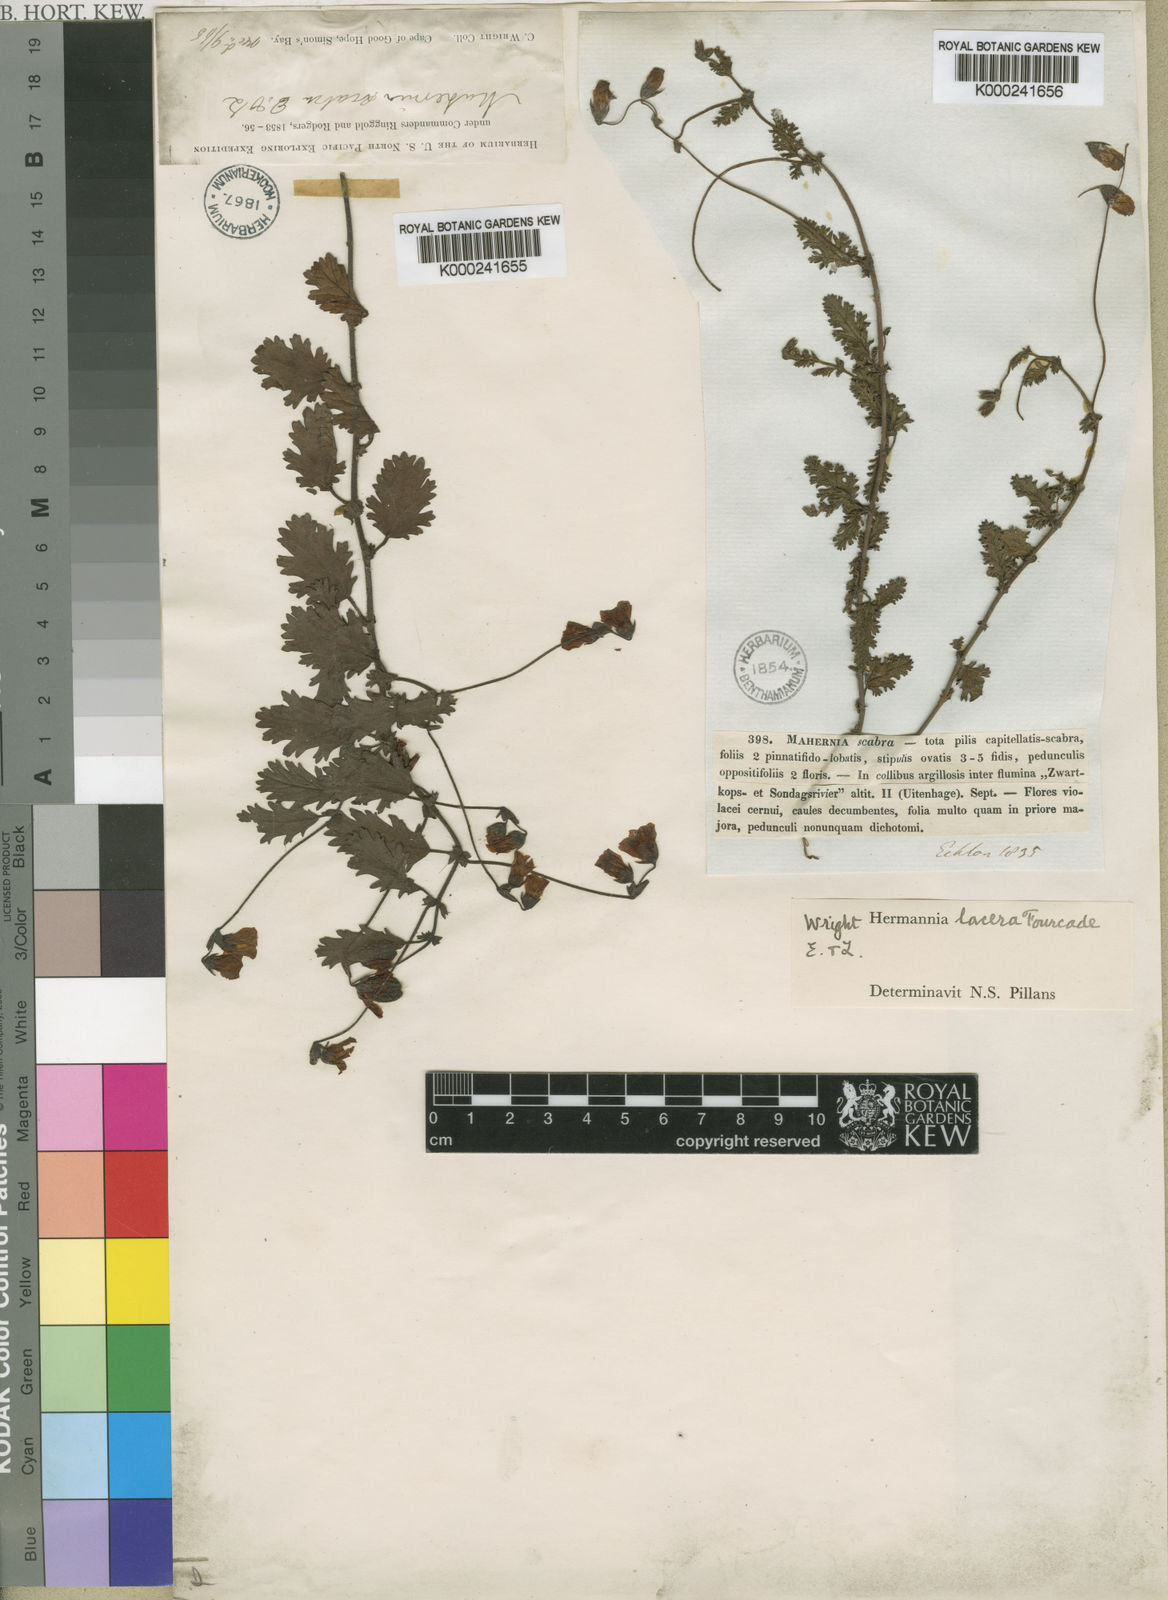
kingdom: Plantae
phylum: Tracheophyta
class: Magnoliopsida
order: Malvales
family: Malvaceae
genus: Hermannia
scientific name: Hermannia lacera
